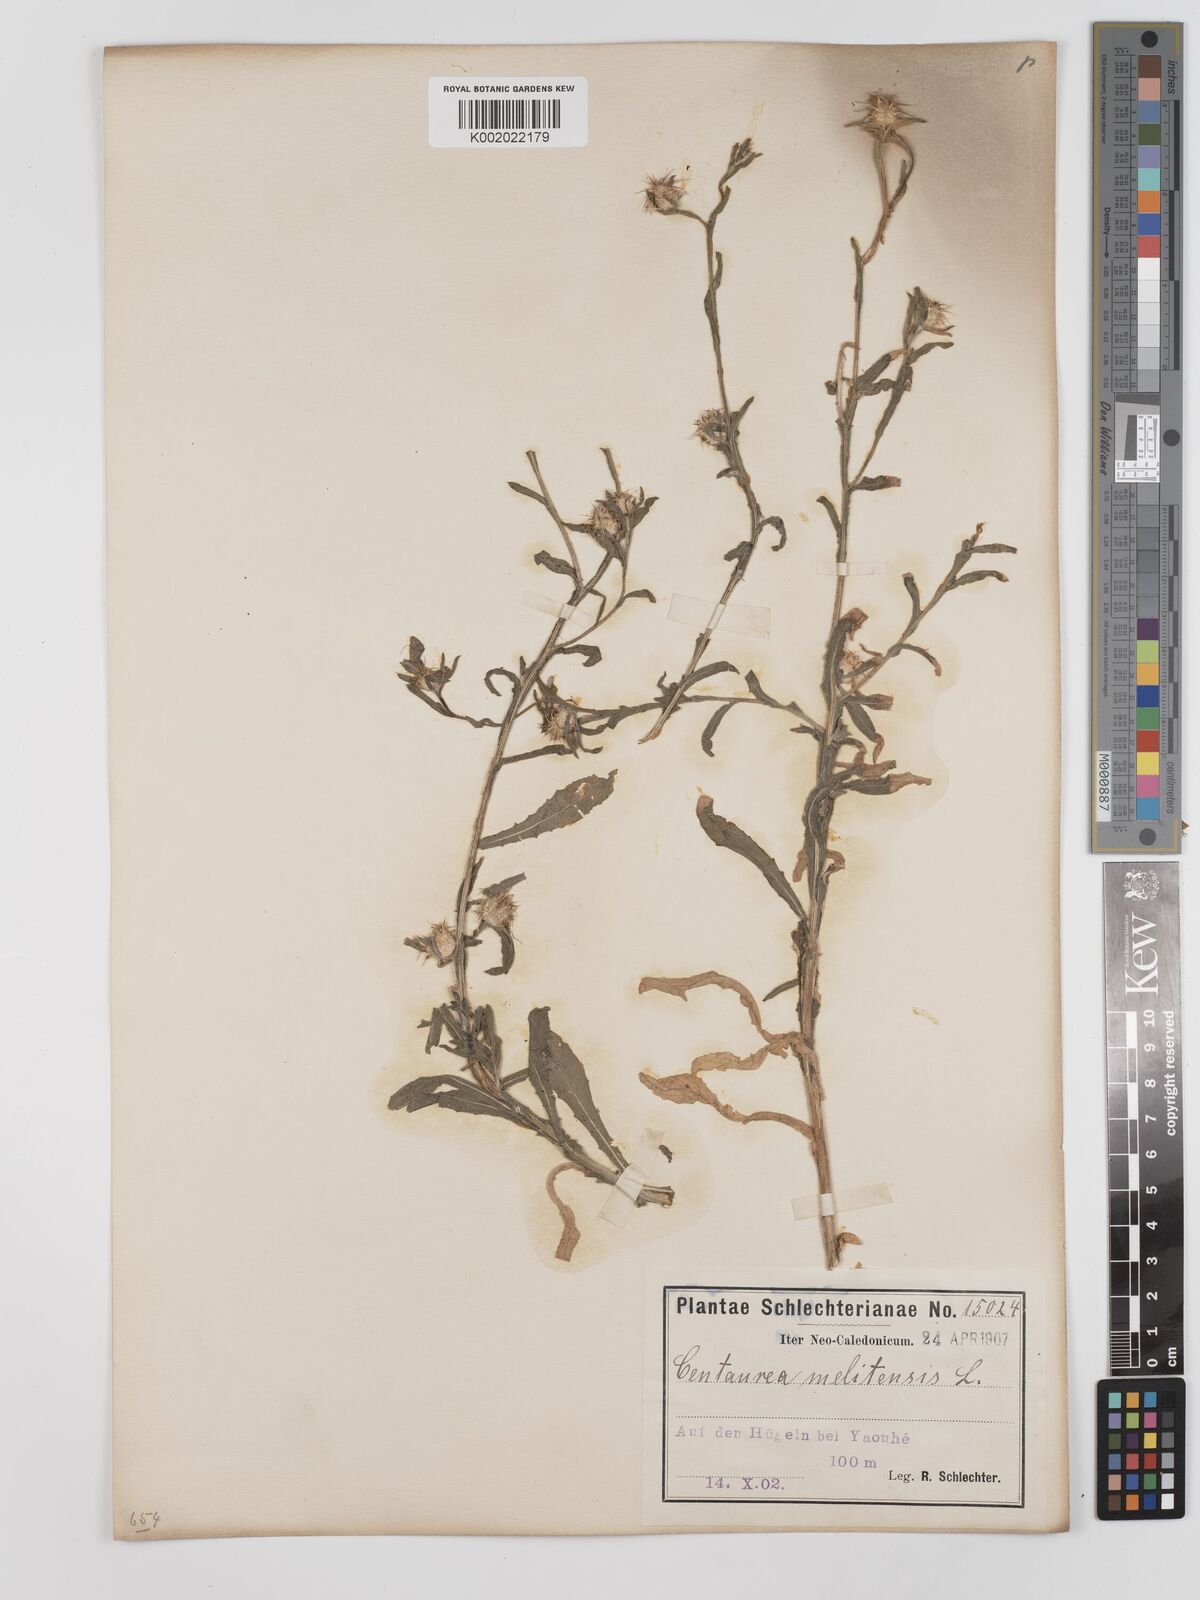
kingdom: Plantae
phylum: Tracheophyta
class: Magnoliopsida
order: Asterales
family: Asteraceae
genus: Centaurea
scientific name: Centaurea melitensis
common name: Maltese star-thistle
